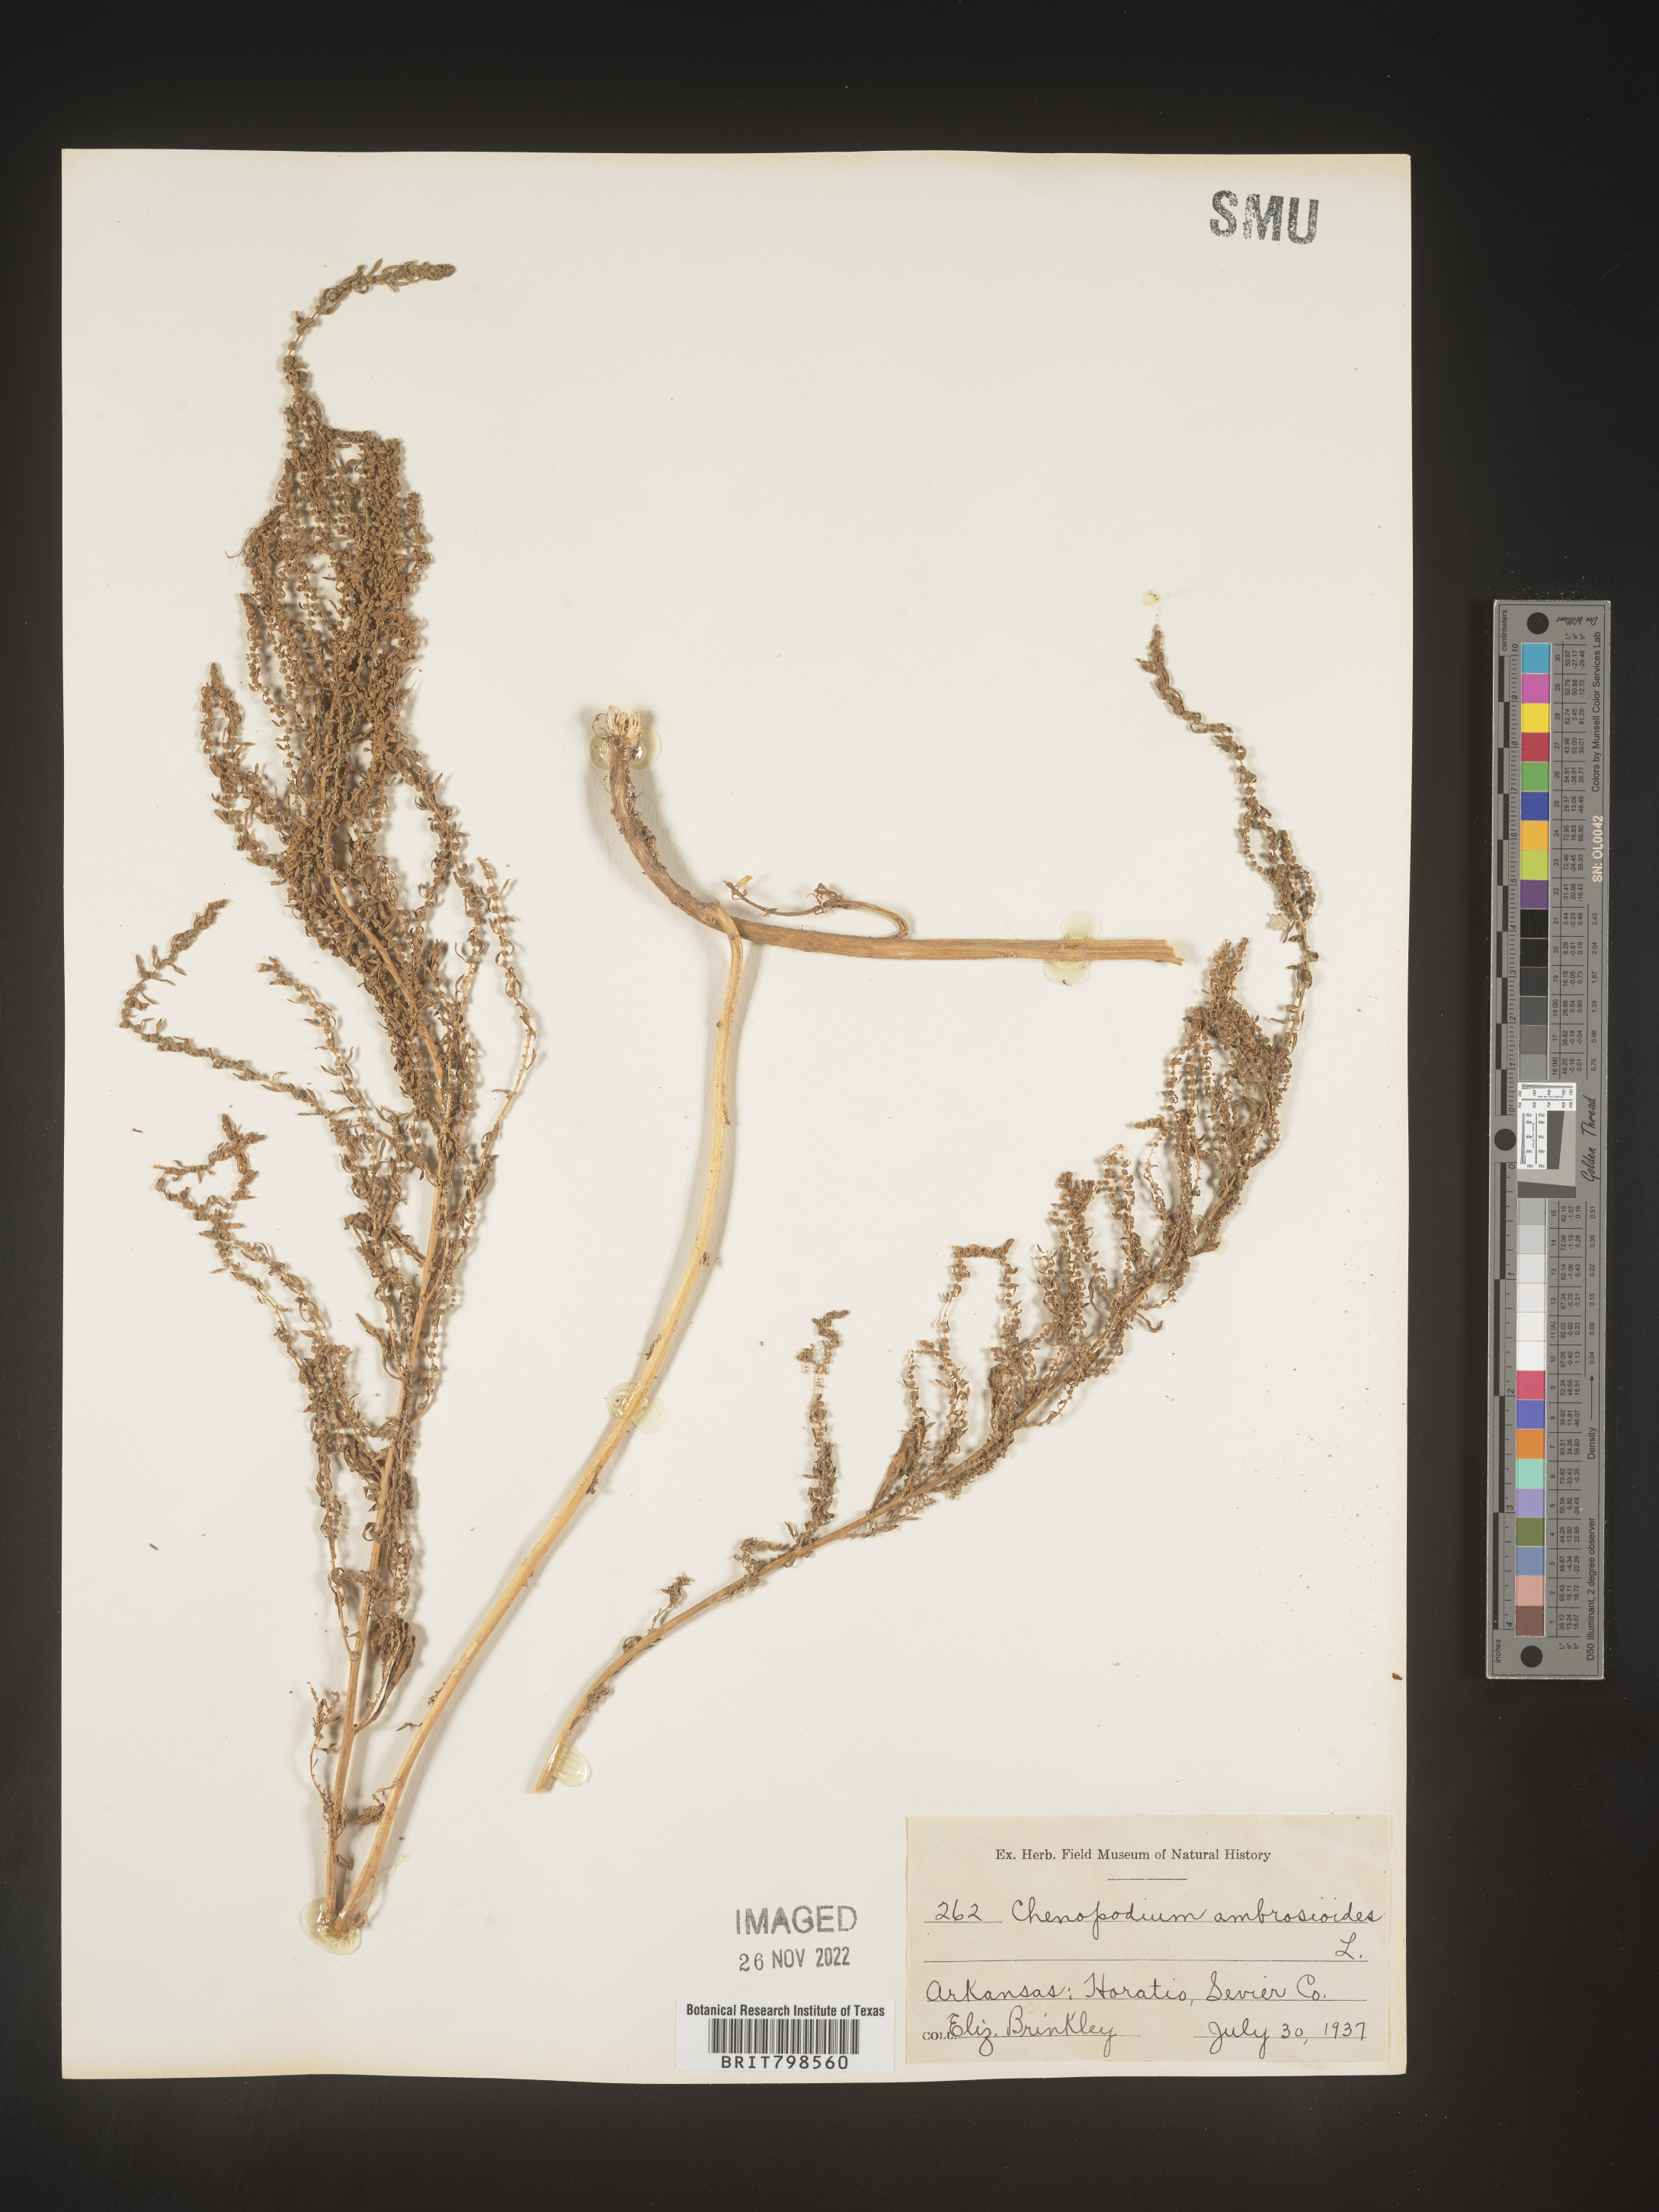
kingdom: Plantae
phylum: Tracheophyta
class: Magnoliopsida
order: Caryophyllales
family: Amaranthaceae
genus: Dysphania
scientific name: Dysphania ambrosioides
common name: Wormseed
